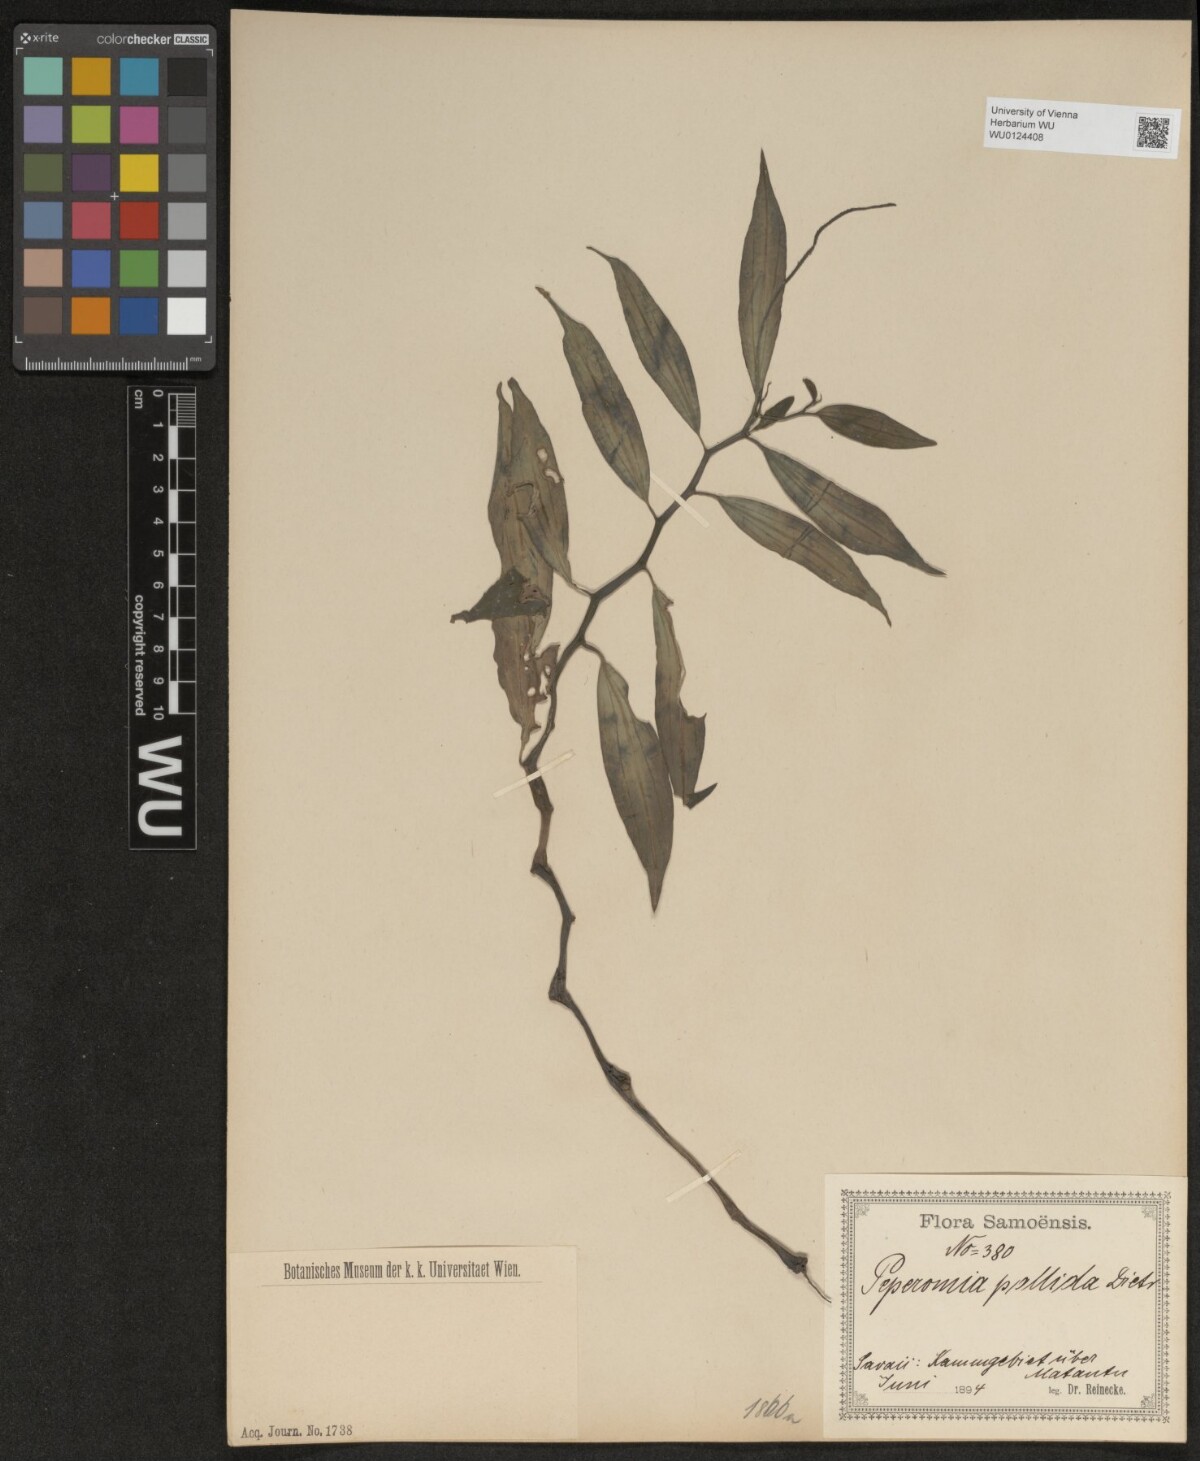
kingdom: Plantae
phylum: Tracheophyta
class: Magnoliopsida
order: Piperales
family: Piperaceae
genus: Peperomia
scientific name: Peperomia pallida
